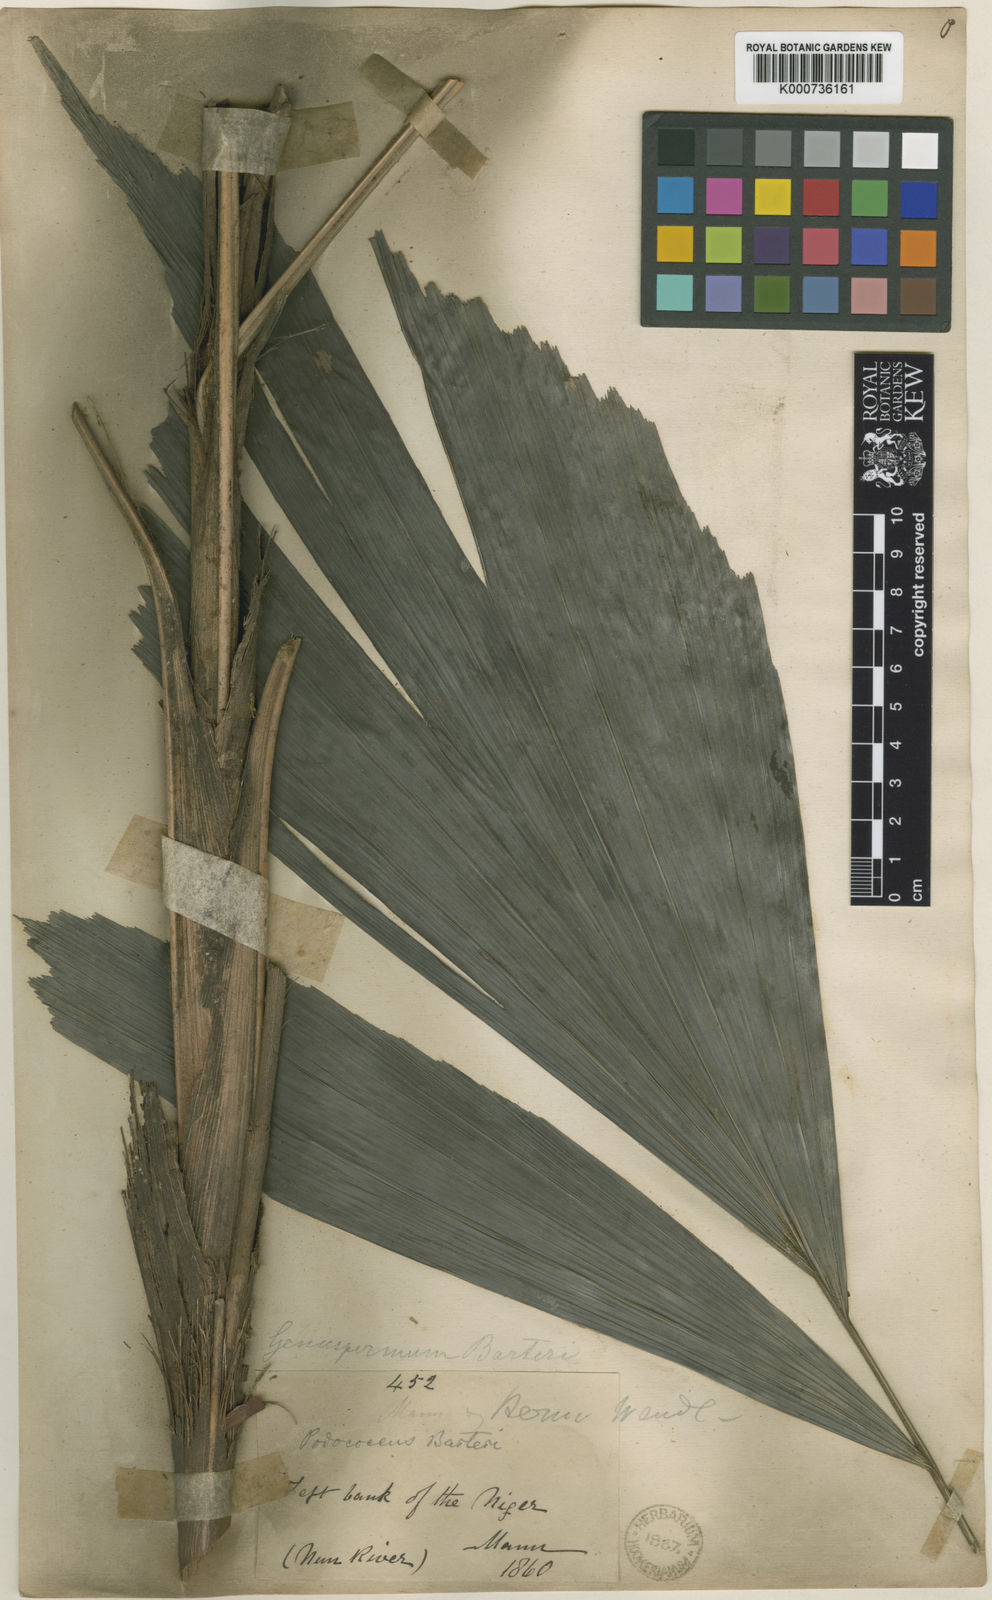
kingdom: Plantae
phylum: Tracheophyta
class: Liliopsida
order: Arecales
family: Arecaceae
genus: Podococcus
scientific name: Podococcus barteri
